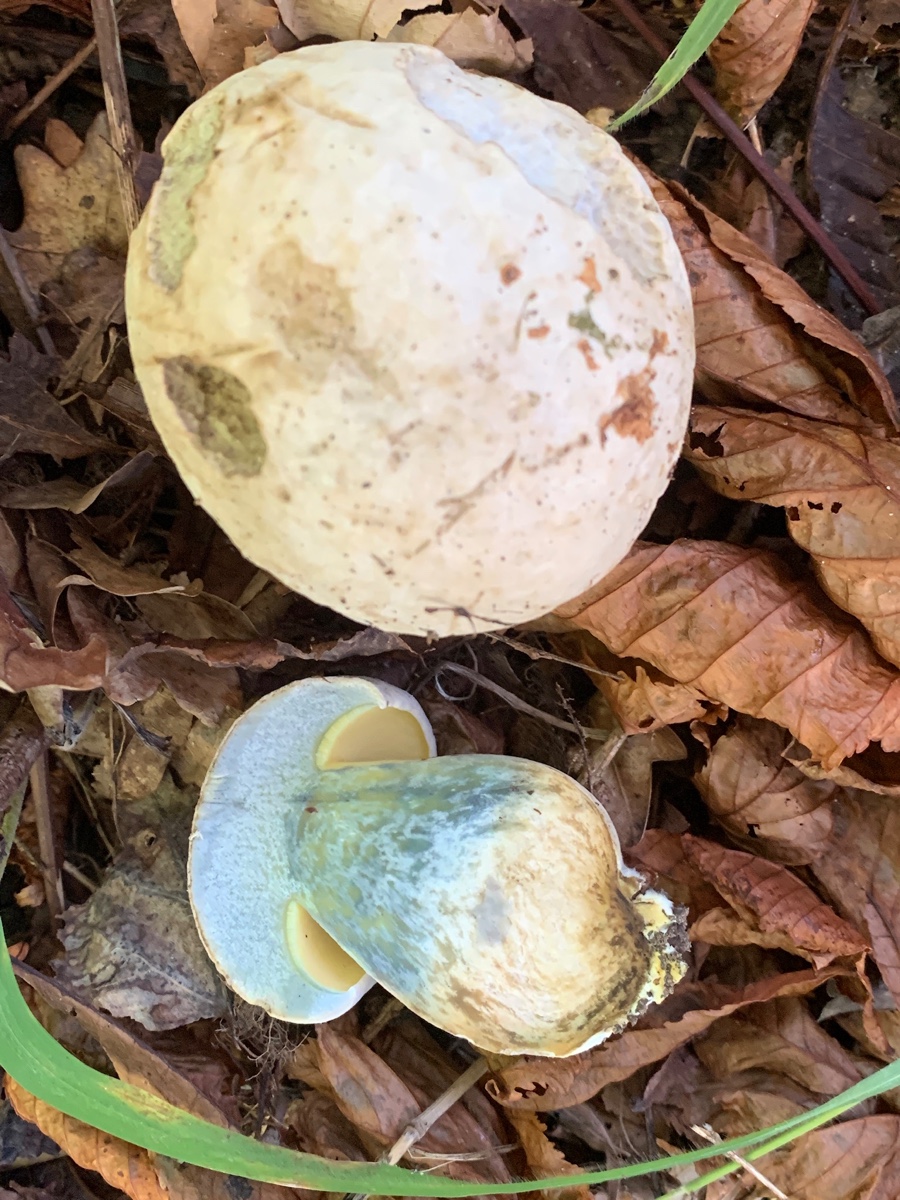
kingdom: Fungi
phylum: Basidiomycota
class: Agaricomycetes
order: Boletales
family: Boletaceae
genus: Caloboletus
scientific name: Caloboletus radicans
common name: rod-rørhat
